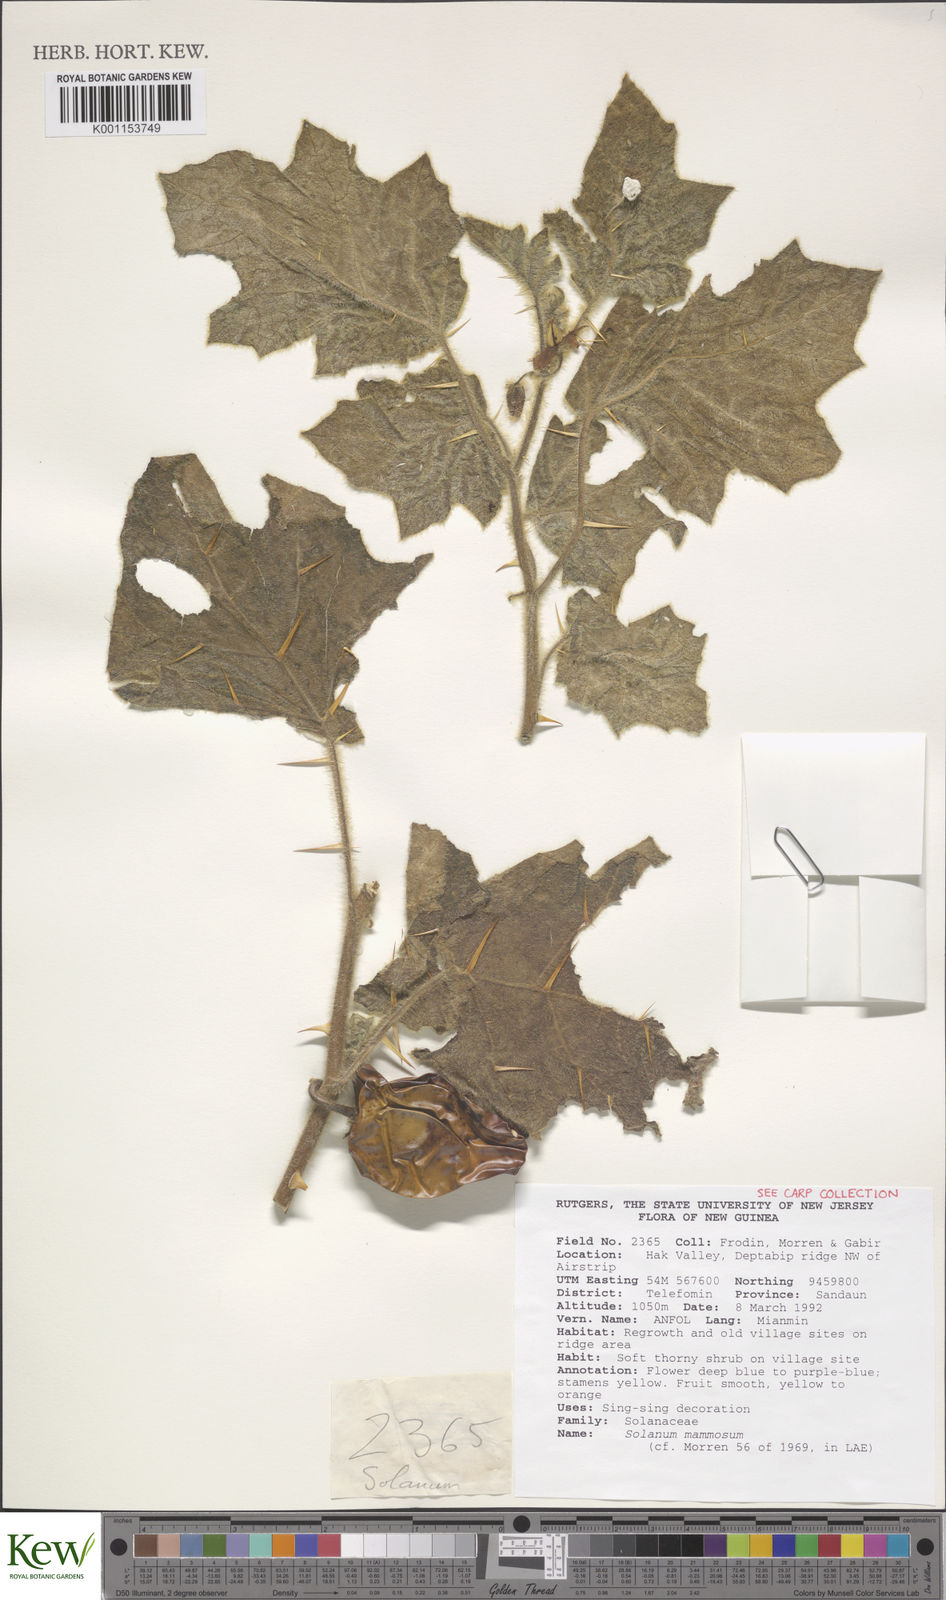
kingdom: Plantae
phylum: Tracheophyta
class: Magnoliopsida
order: Solanales
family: Solanaceae
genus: Solanum
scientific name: Solanum mammosum
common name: Nipple fruit
